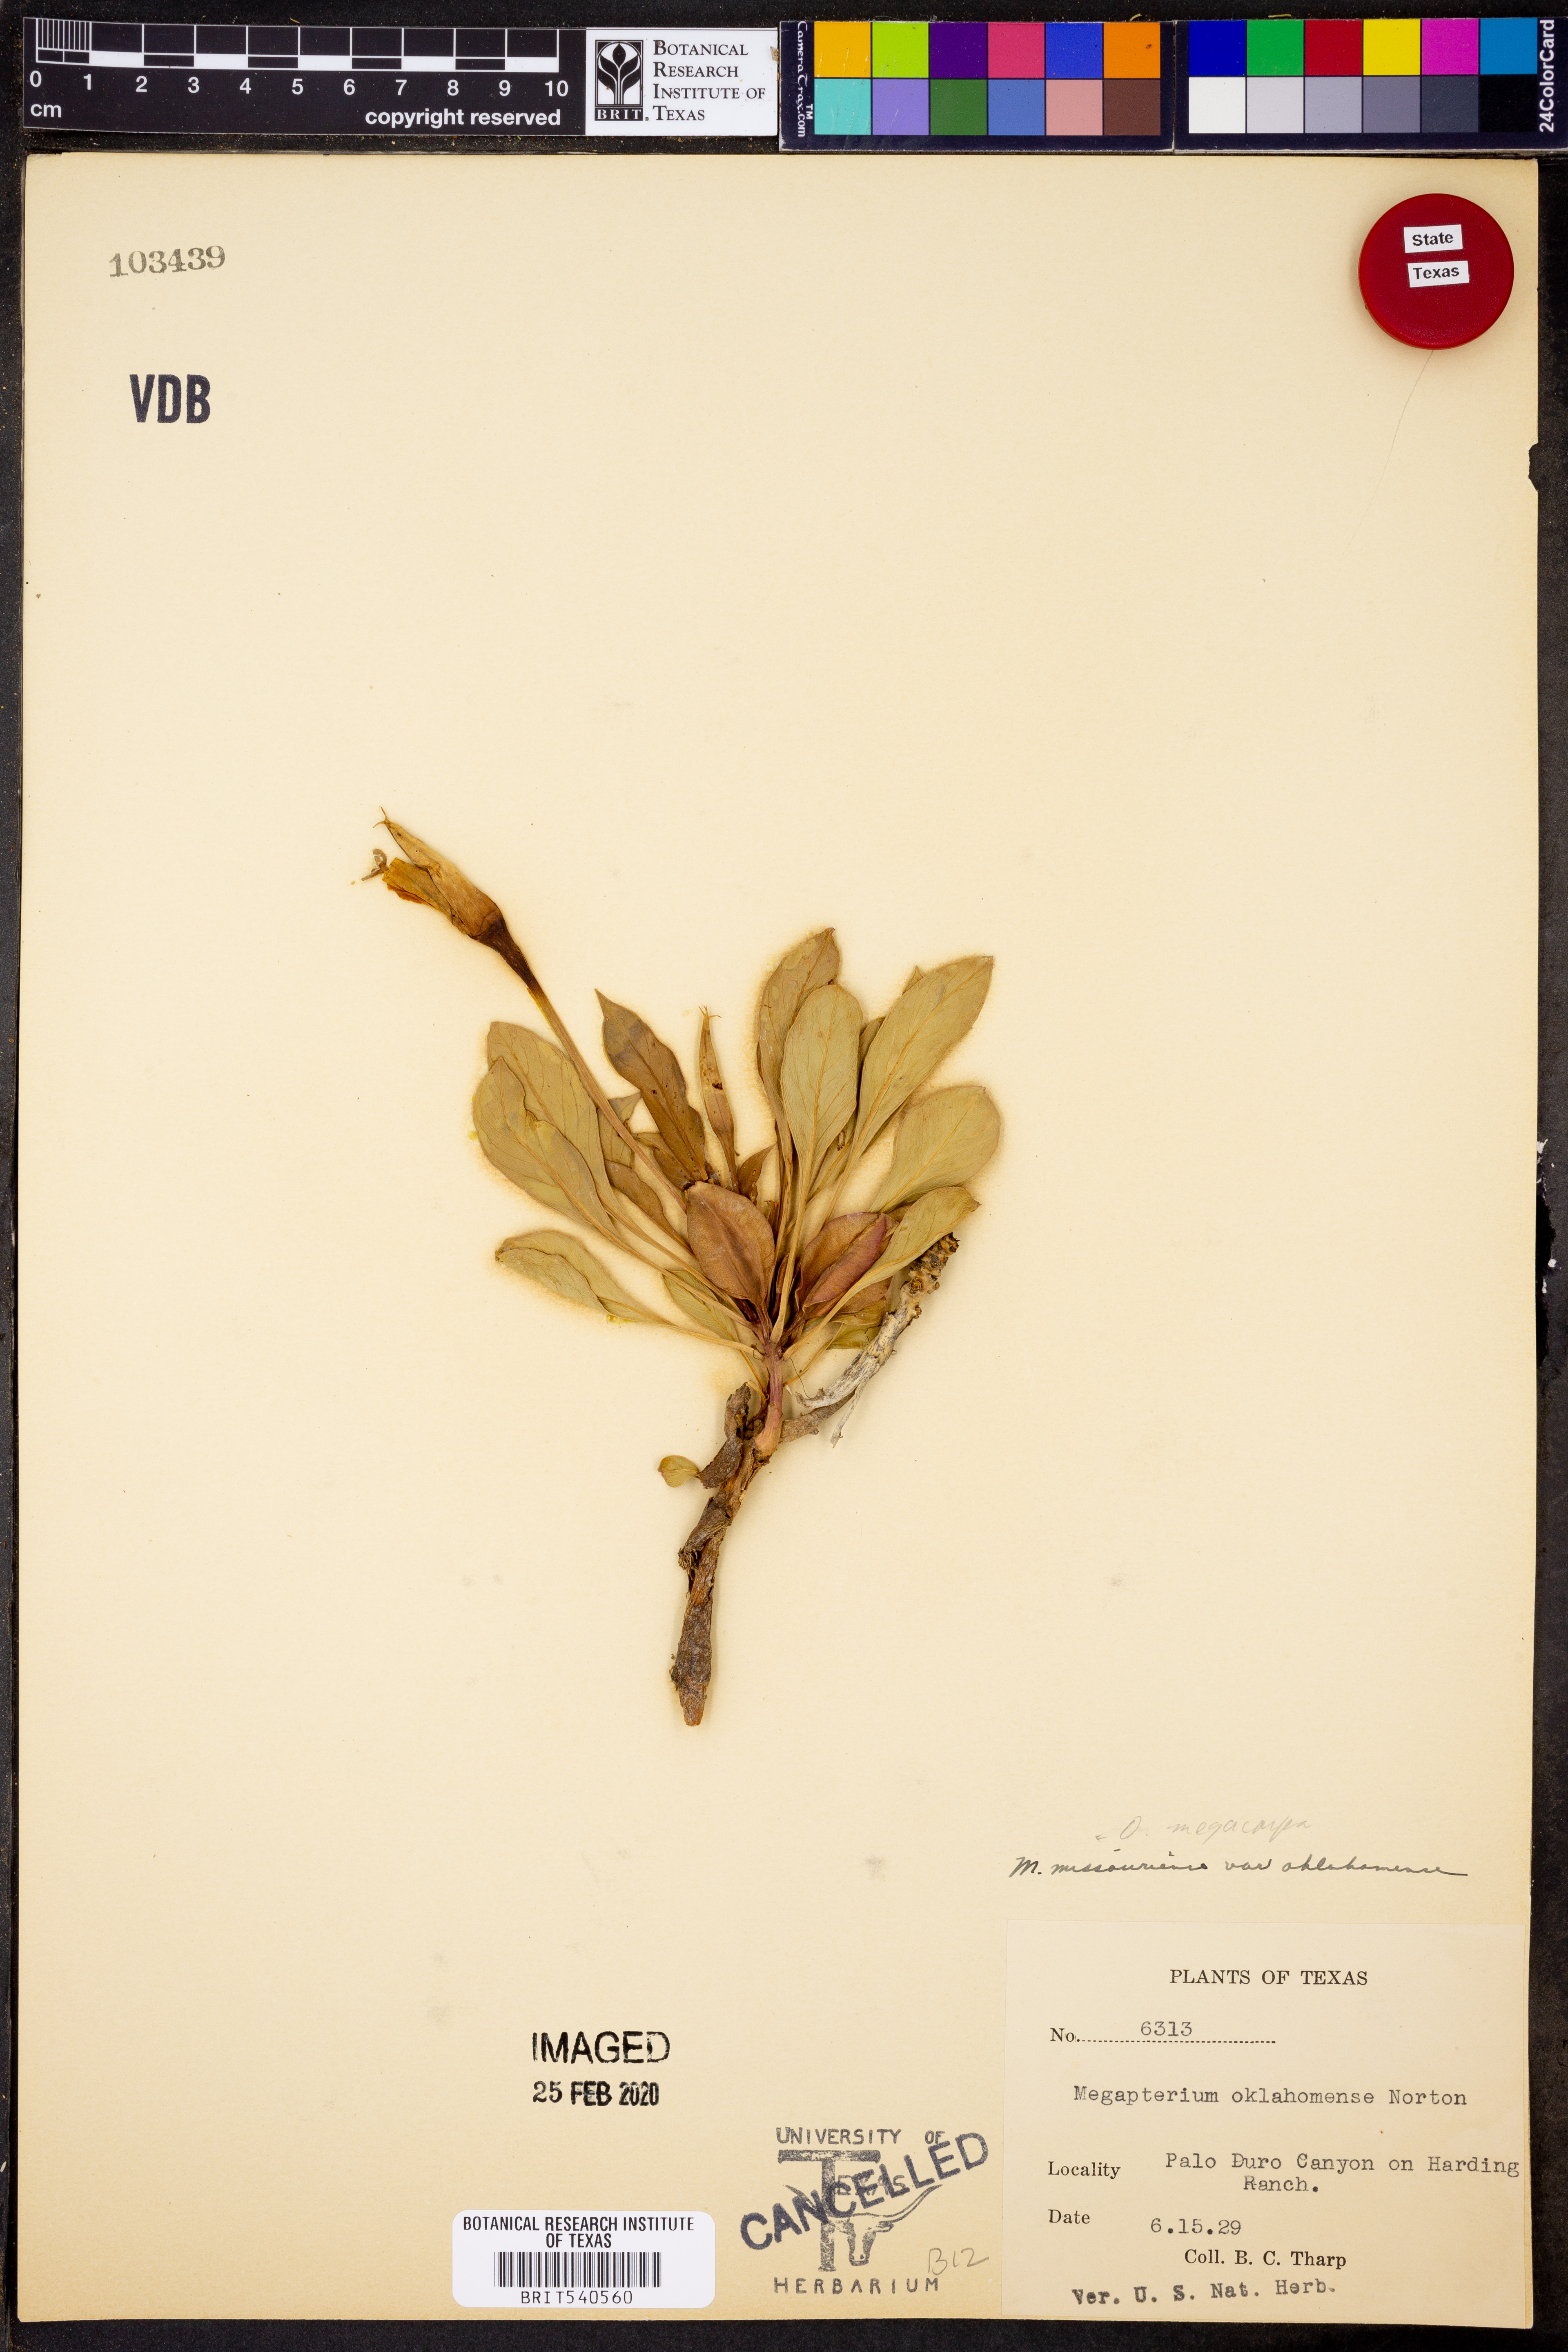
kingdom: Plantae
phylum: Tracheophyta
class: Magnoliopsida
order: Myrtales
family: Onagraceae
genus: Oenothera
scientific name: Oenothera macrocarpa
